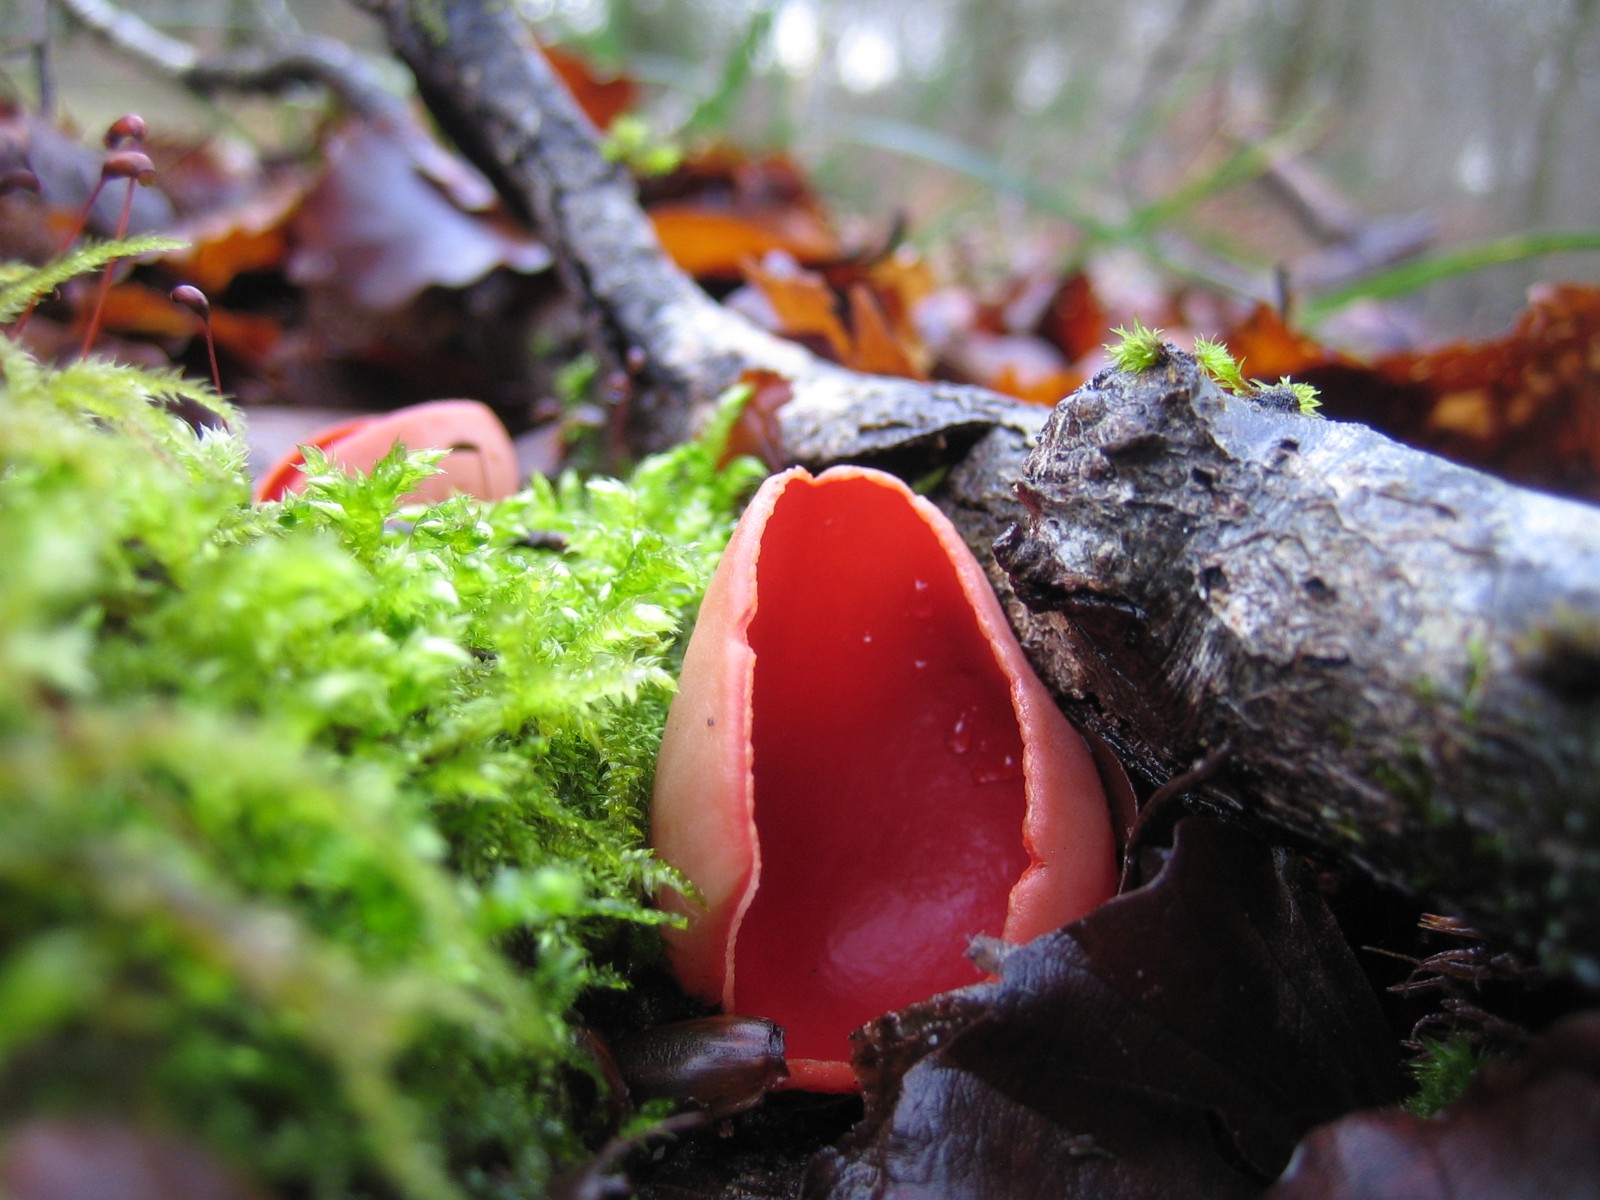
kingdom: Fungi
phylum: Ascomycota
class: Pezizomycetes
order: Pezizales
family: Sarcoscyphaceae
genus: Sarcoscypha
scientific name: Sarcoscypha austriaca
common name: krølhåret pragtbæger
